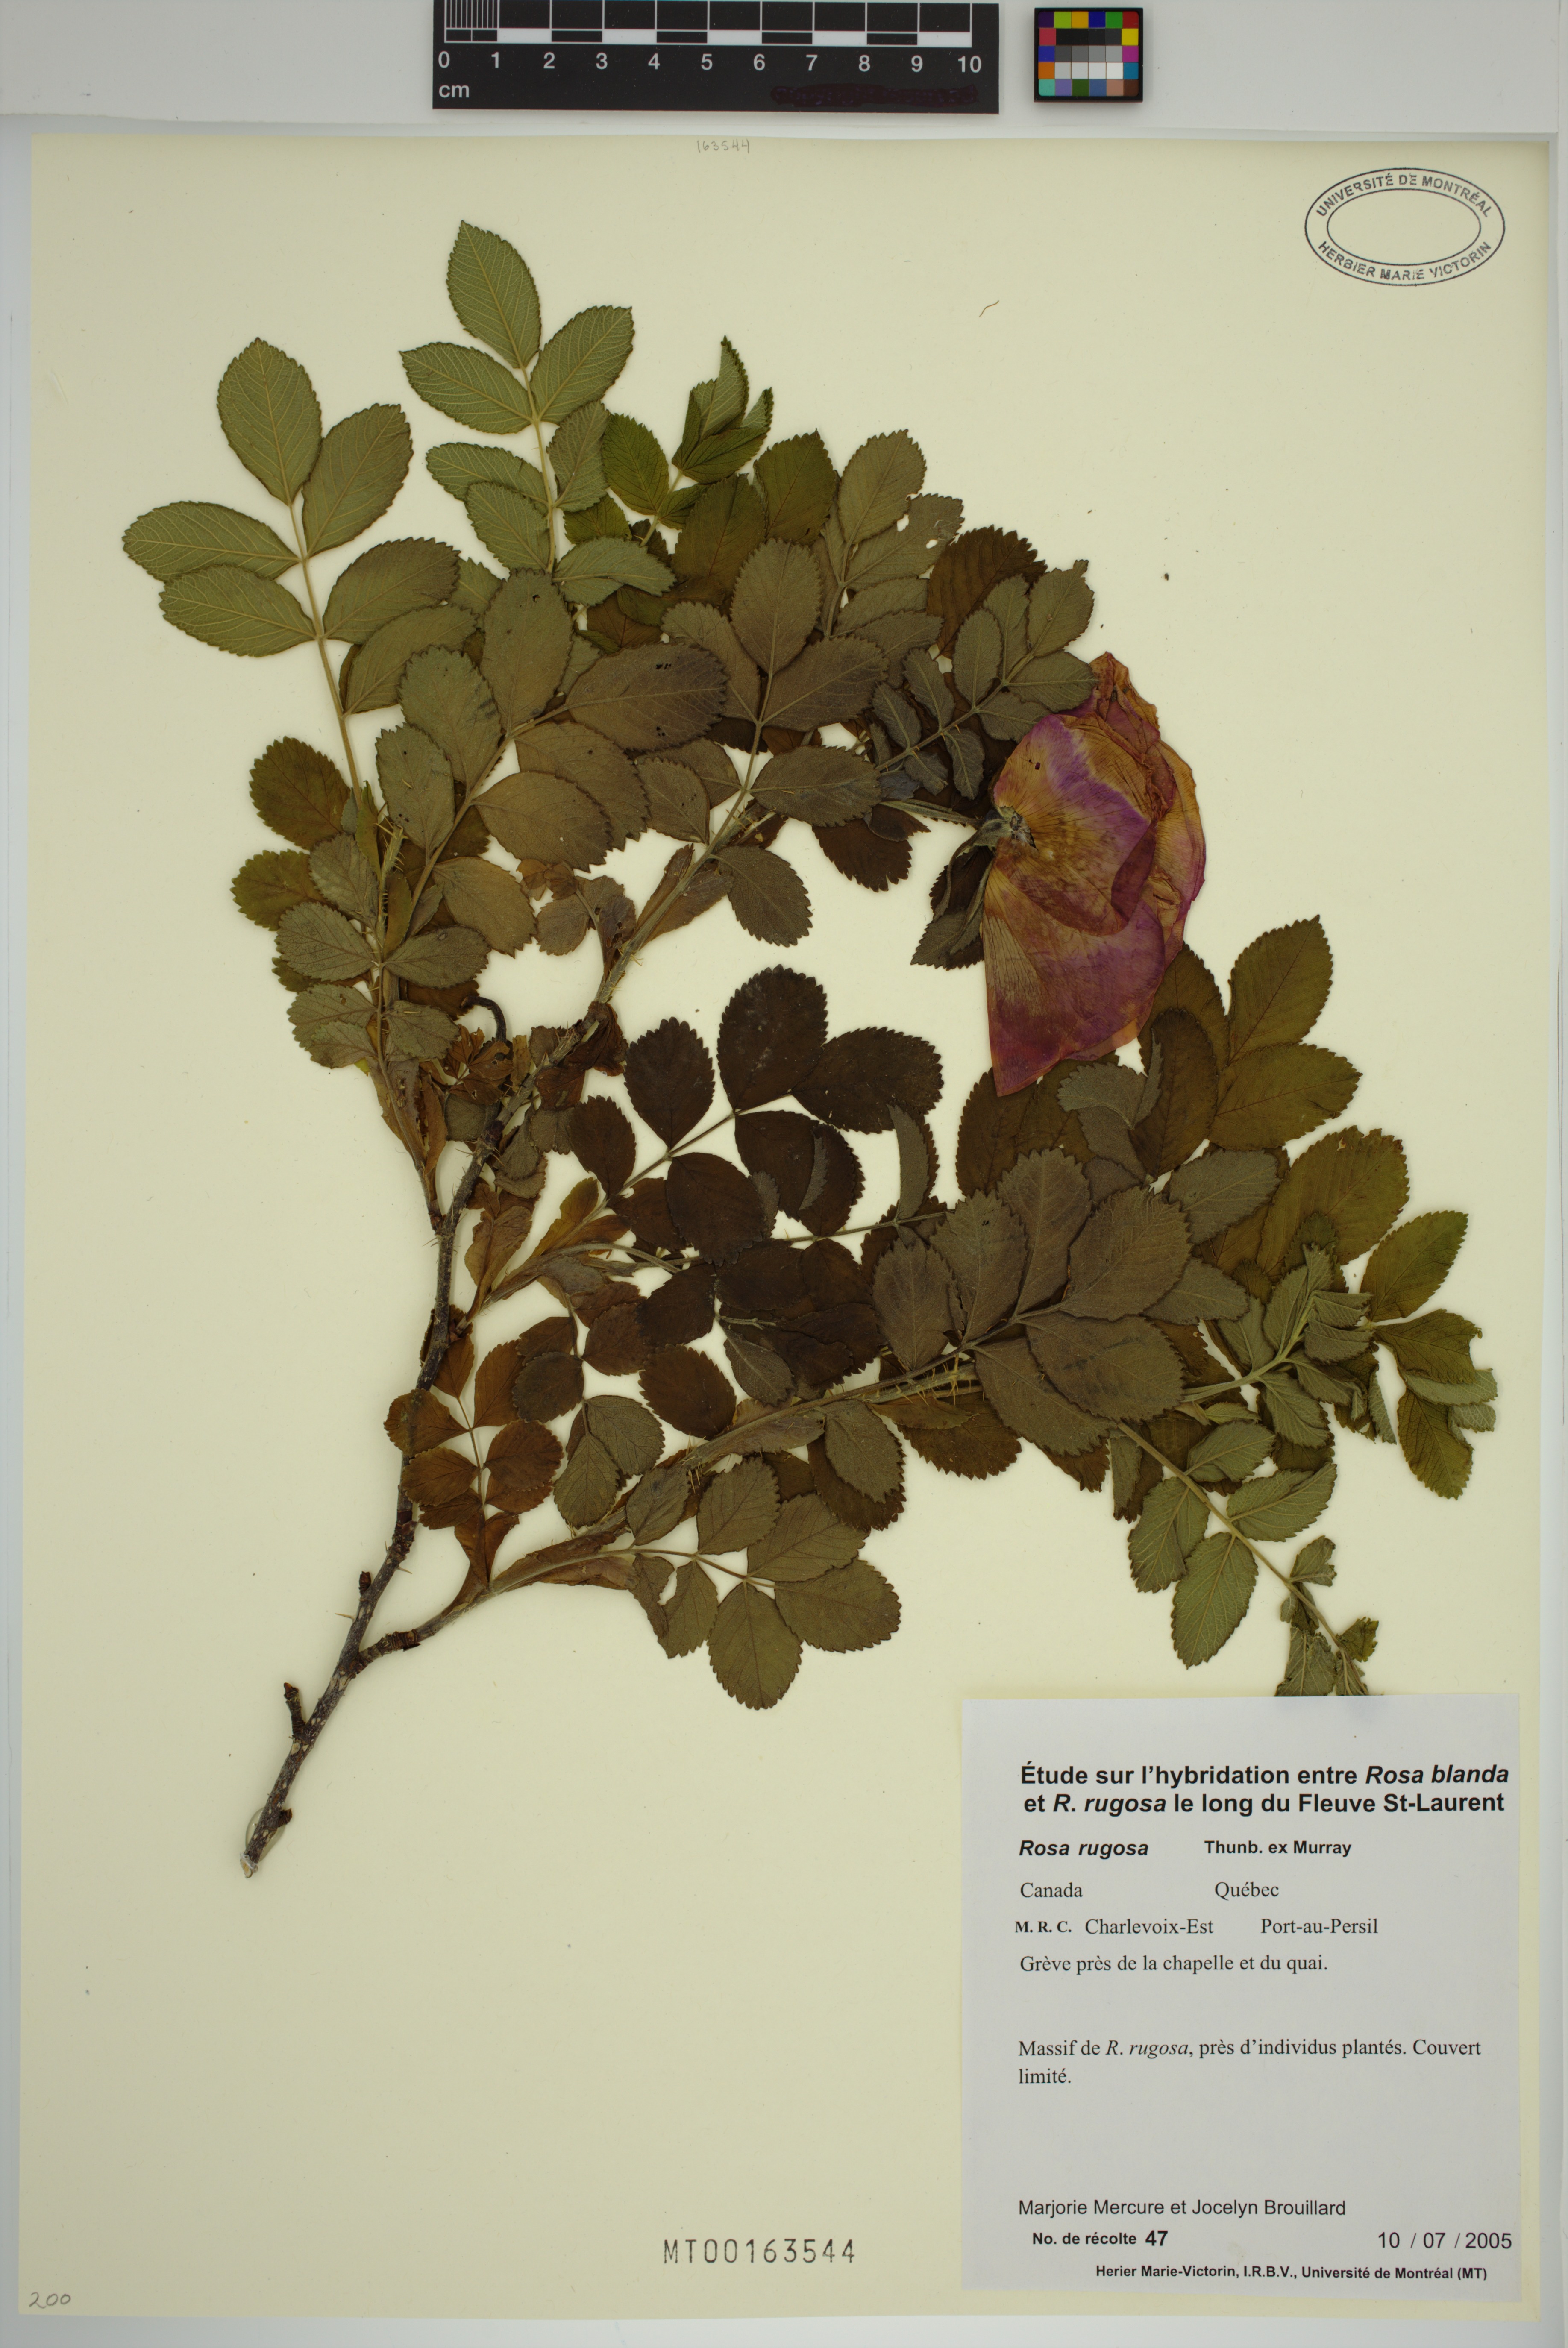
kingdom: Plantae
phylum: Tracheophyta
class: Magnoliopsida
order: Rosales
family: Rosaceae
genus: Rosa
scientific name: Rosa rugosa
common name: Japanese rose
